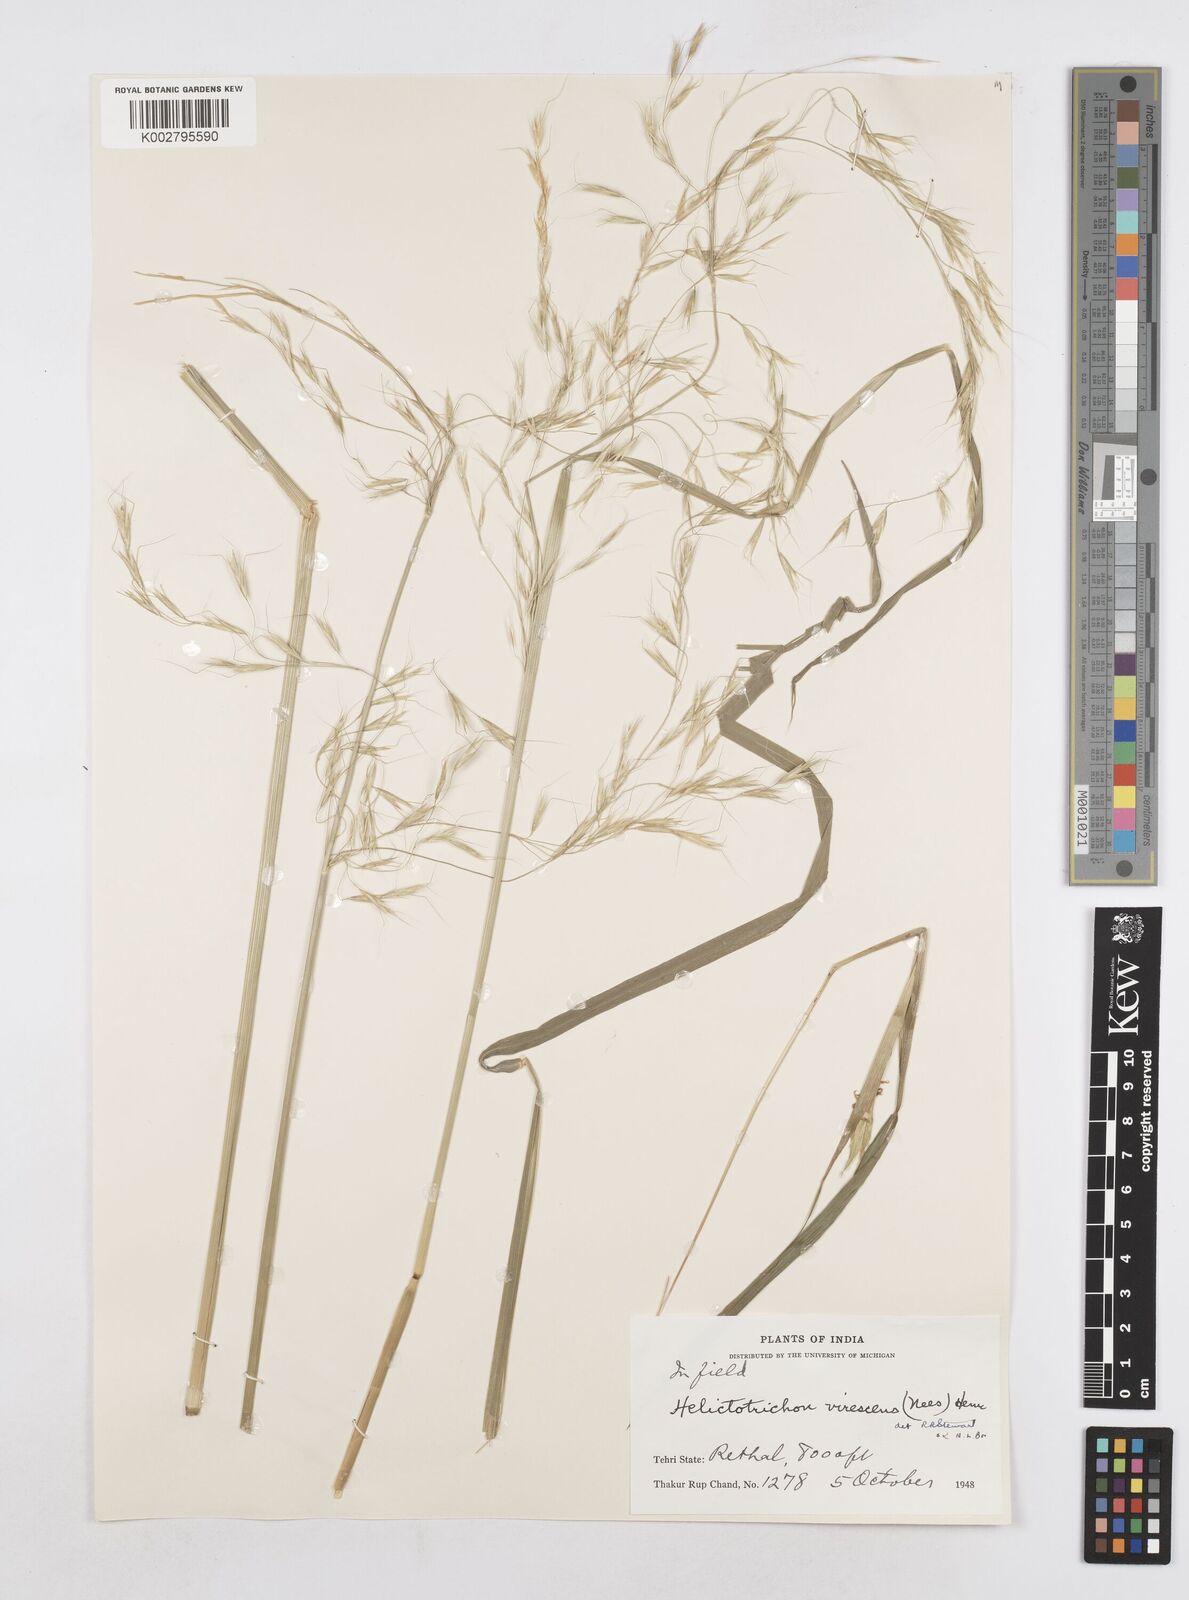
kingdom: Plantae
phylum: Tracheophyta
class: Liliopsida
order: Poales
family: Poaceae
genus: Helictotrichon
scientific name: Helictotrichon
